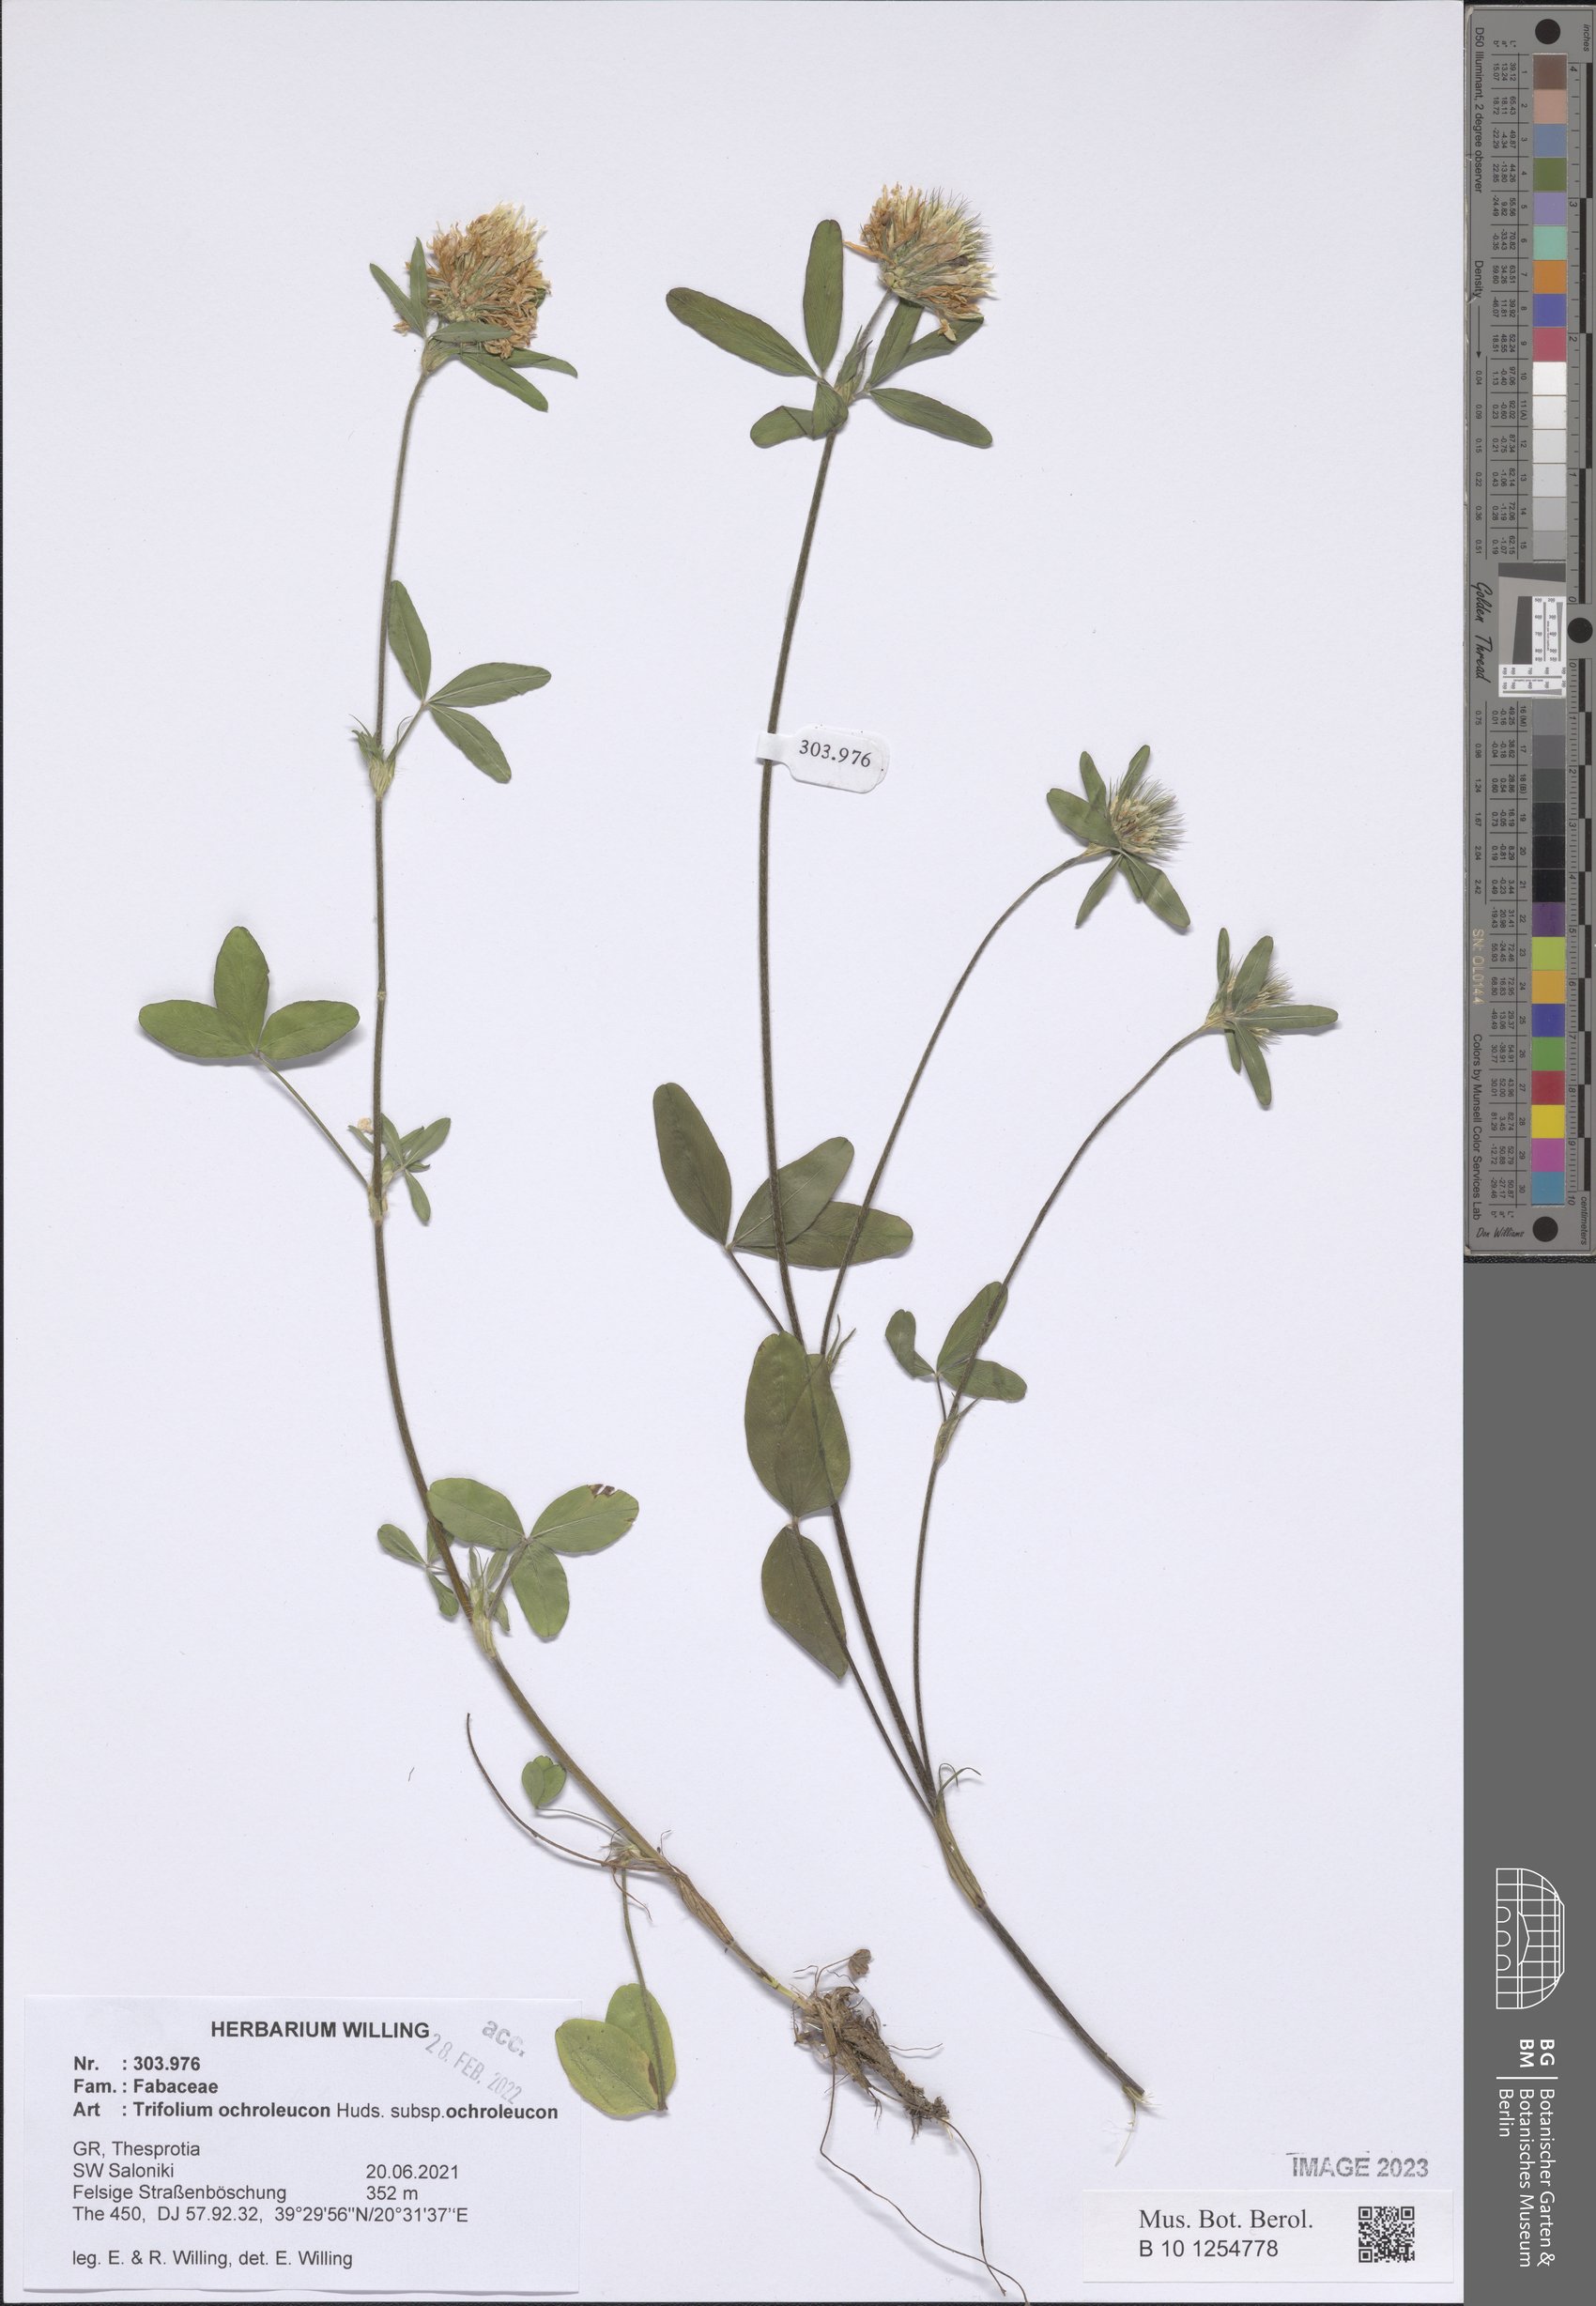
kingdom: Plantae
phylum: Tracheophyta
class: Magnoliopsida
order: Fabales
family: Fabaceae
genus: Trifolium
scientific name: Trifolium ochroleucon
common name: Sulphur clover
